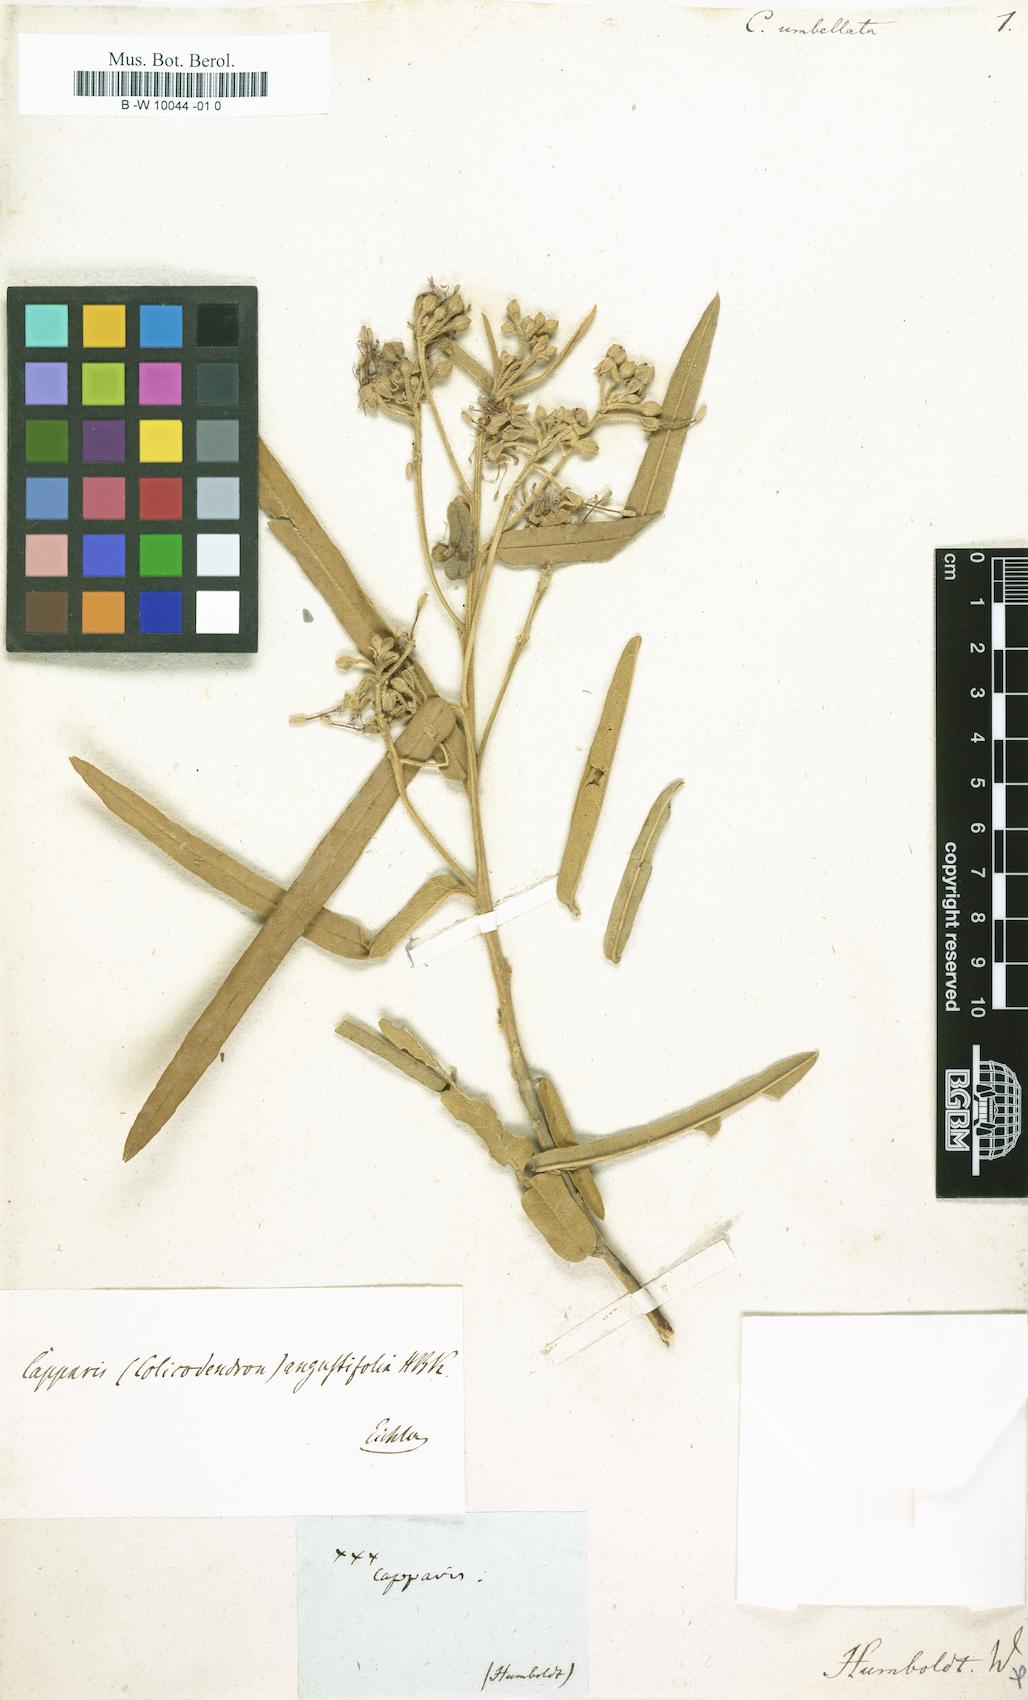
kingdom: Plantae
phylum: Tracheophyta
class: Magnoliopsida
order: Brassicales
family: Capparaceae
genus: Capparis
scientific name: Capparis umbellata
